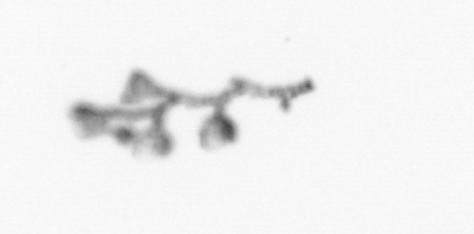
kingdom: Animalia
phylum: Cnidaria
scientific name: Cnidaria
